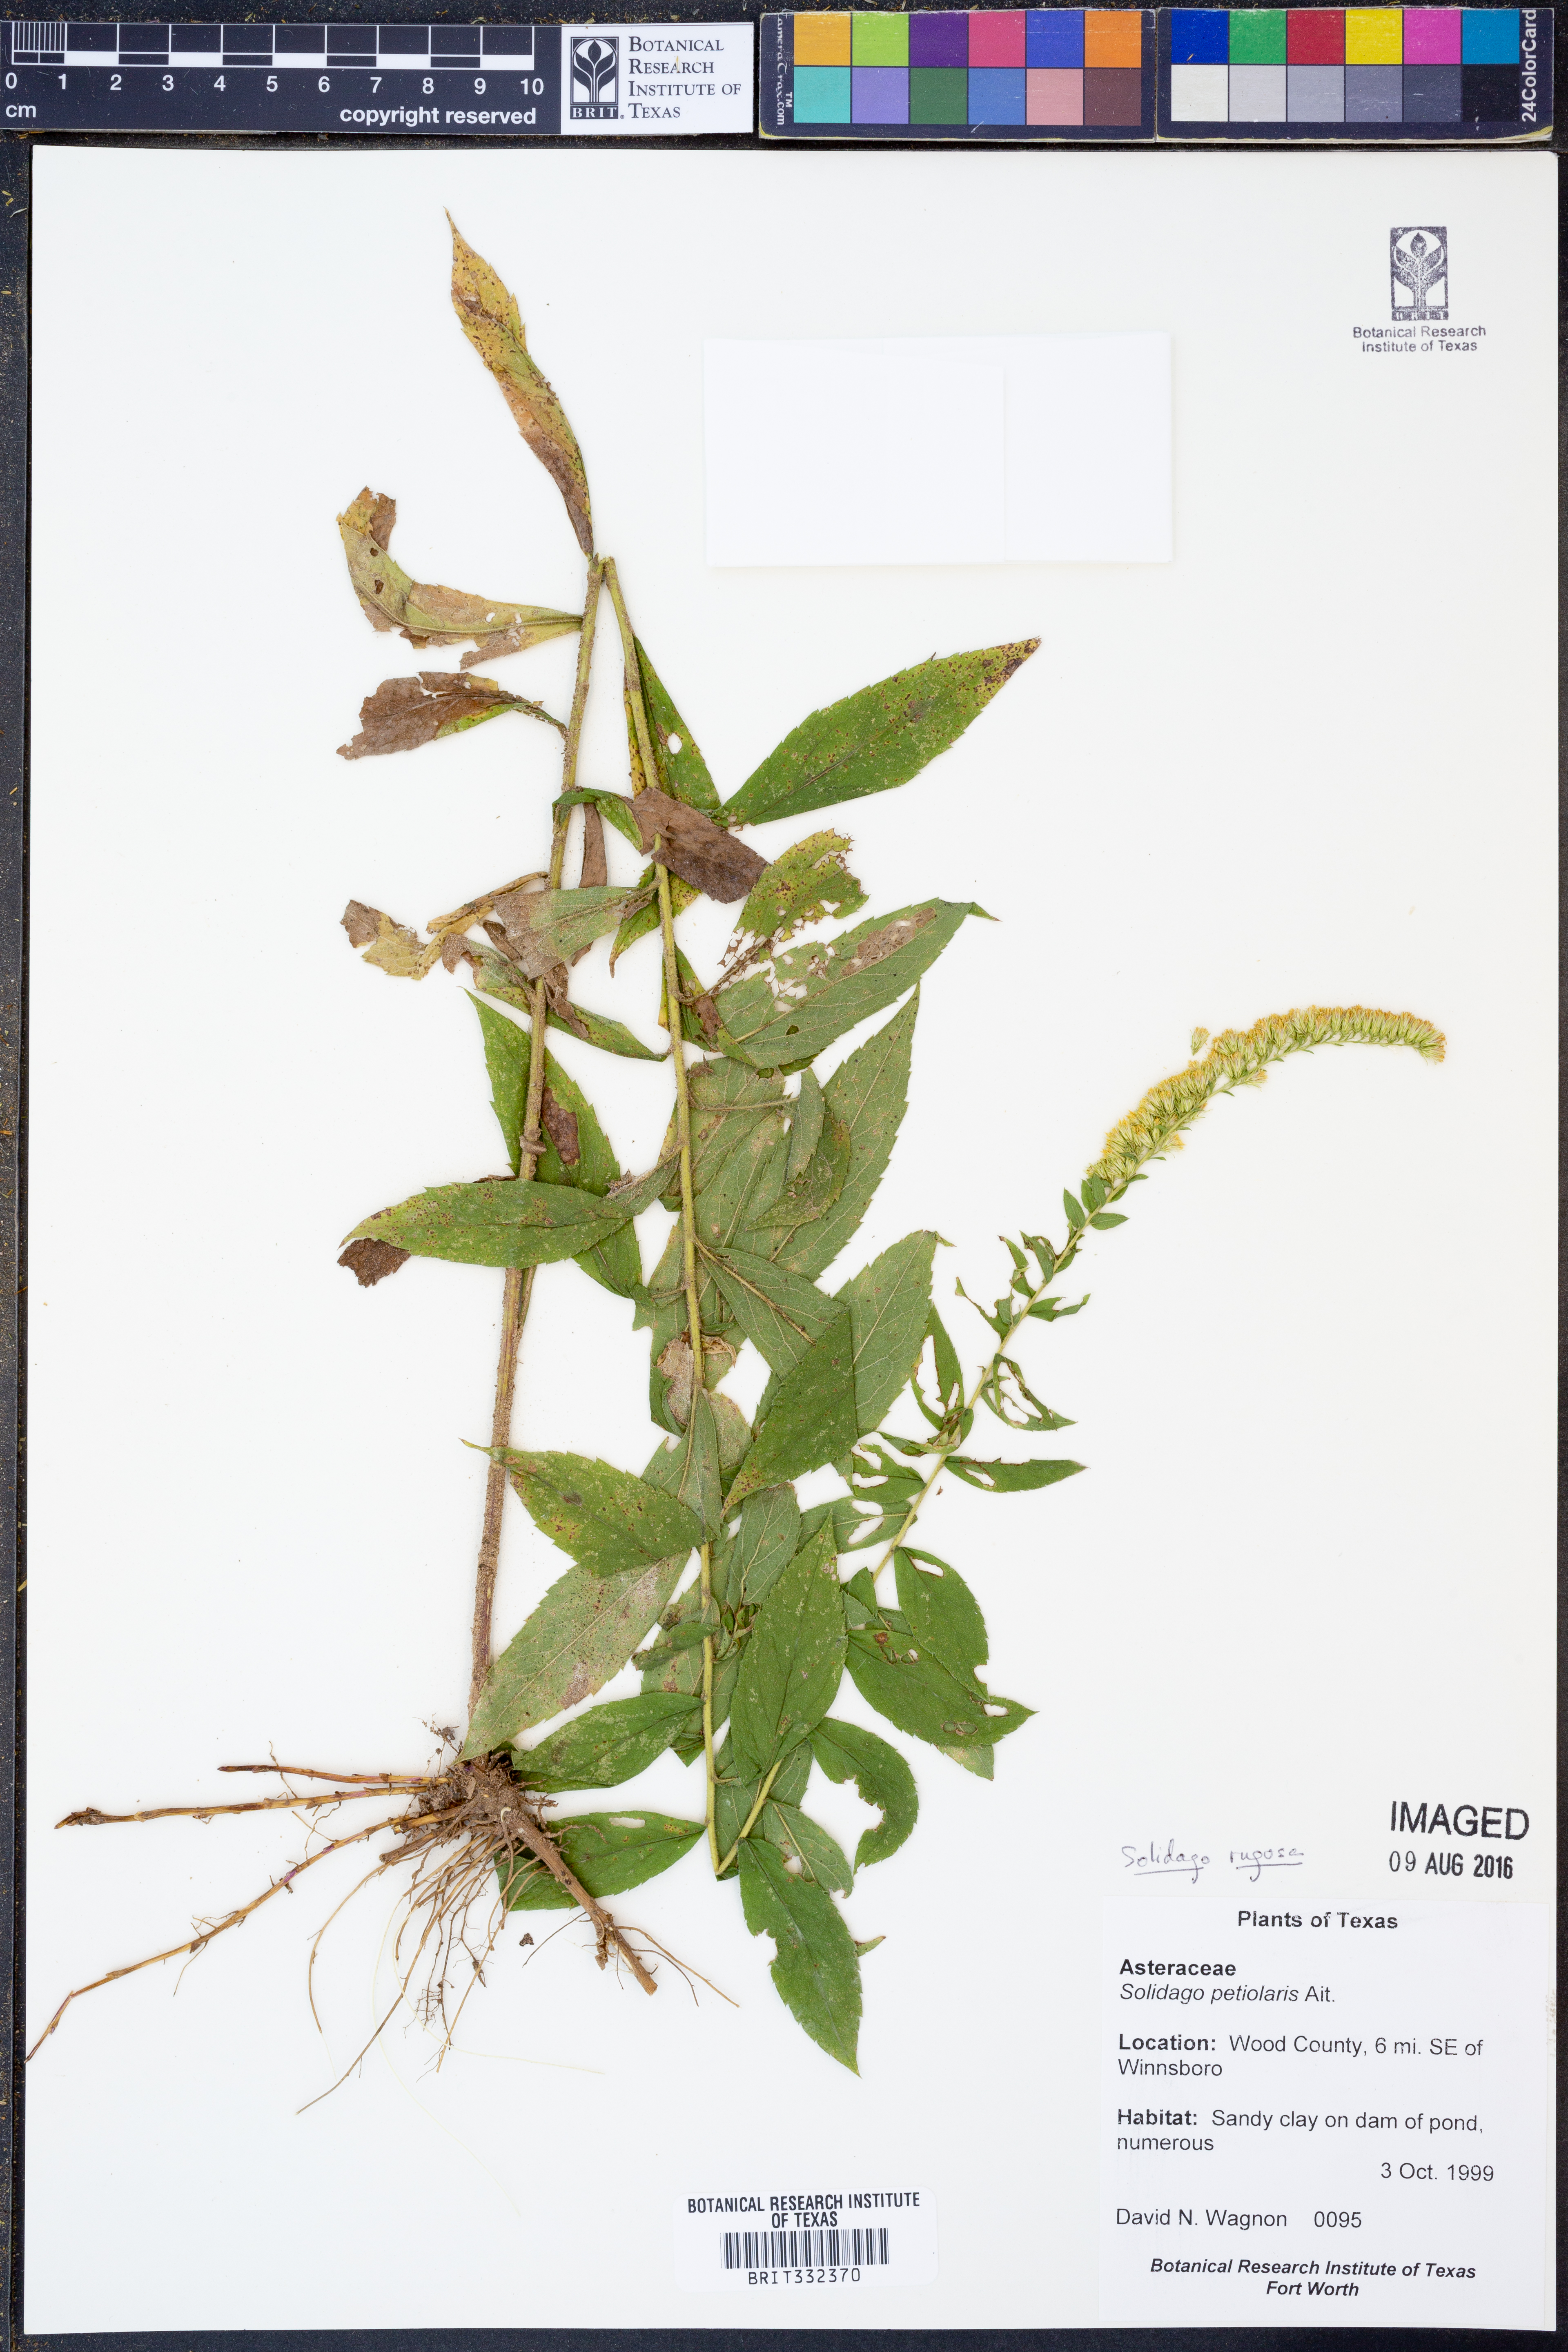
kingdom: Plantae
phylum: Tracheophyta
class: Magnoliopsida
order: Asterales
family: Asteraceae
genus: Solidago
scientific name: Solidago rugosa
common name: Rough-stemmed goldenrod
